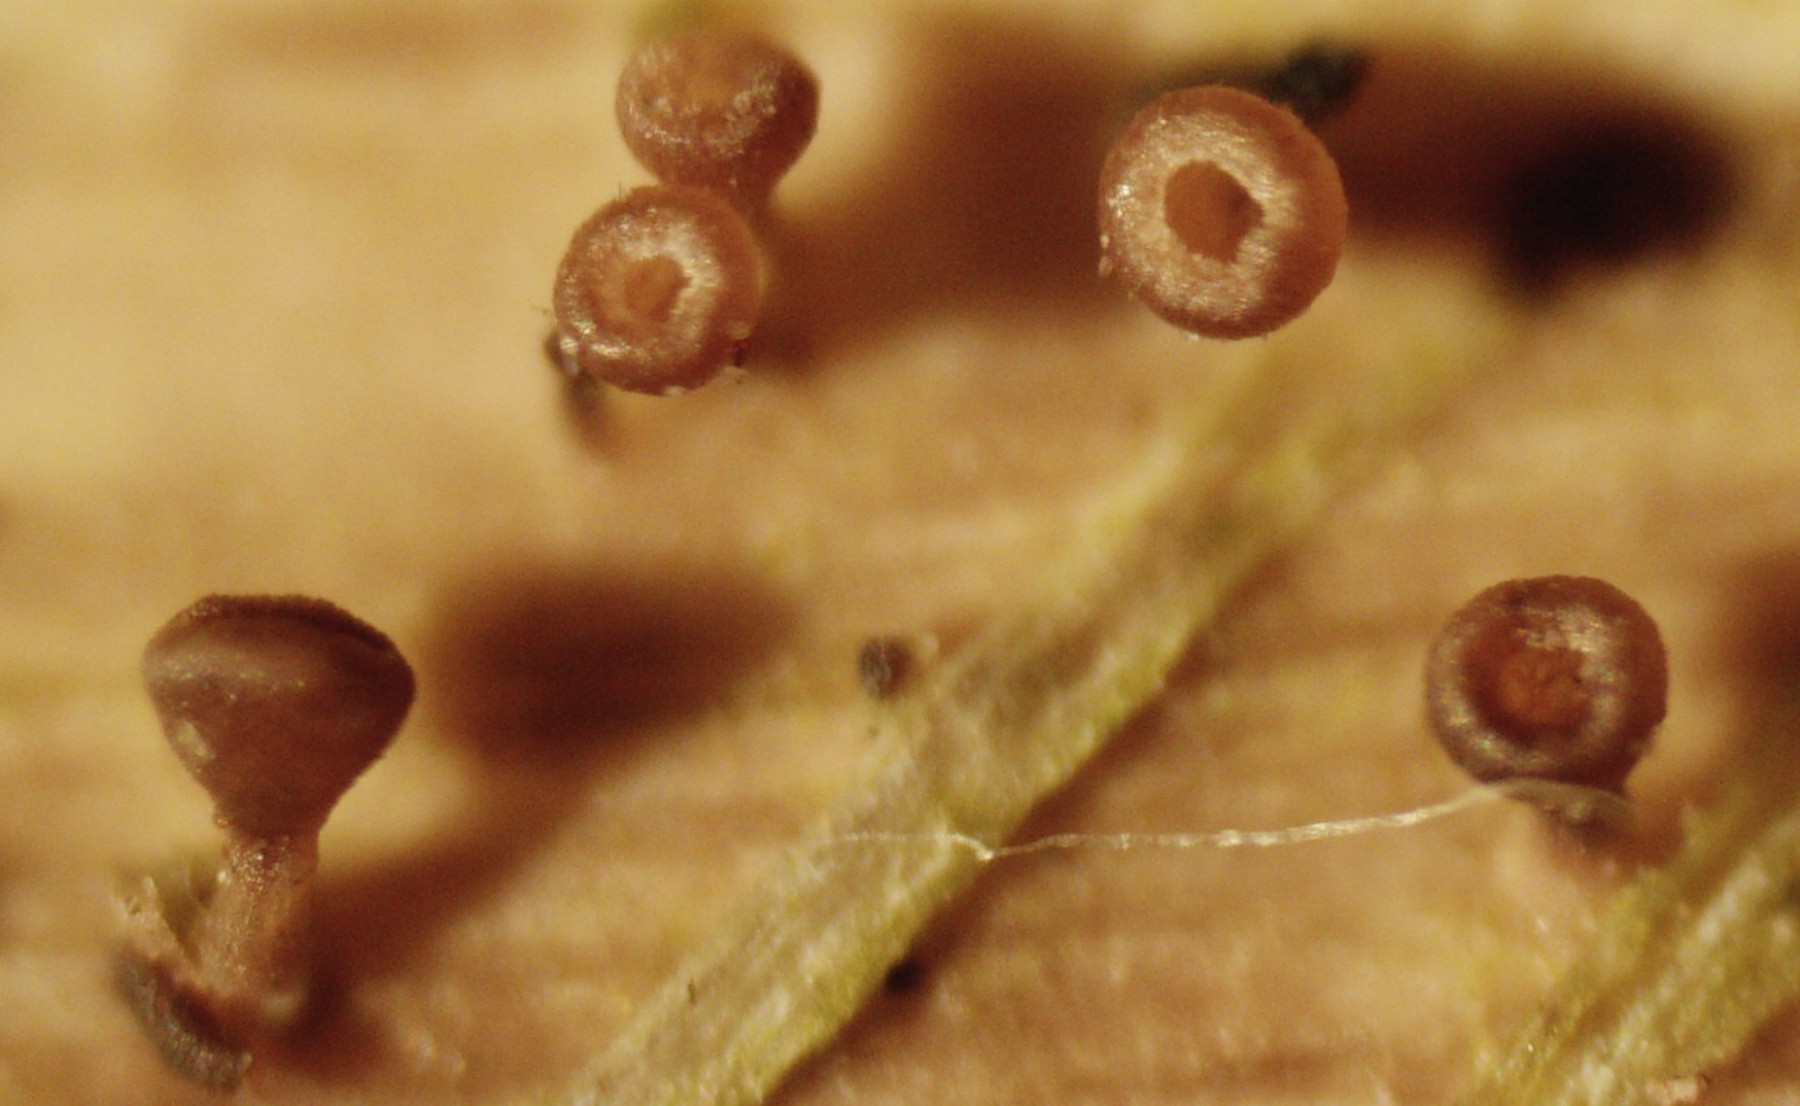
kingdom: Fungi
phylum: Ascomycota
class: Leotiomycetes
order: Helotiales
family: Helotiaceae
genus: Cyathicula
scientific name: Cyathicula cyathoidea
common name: pokal-stilkskive
